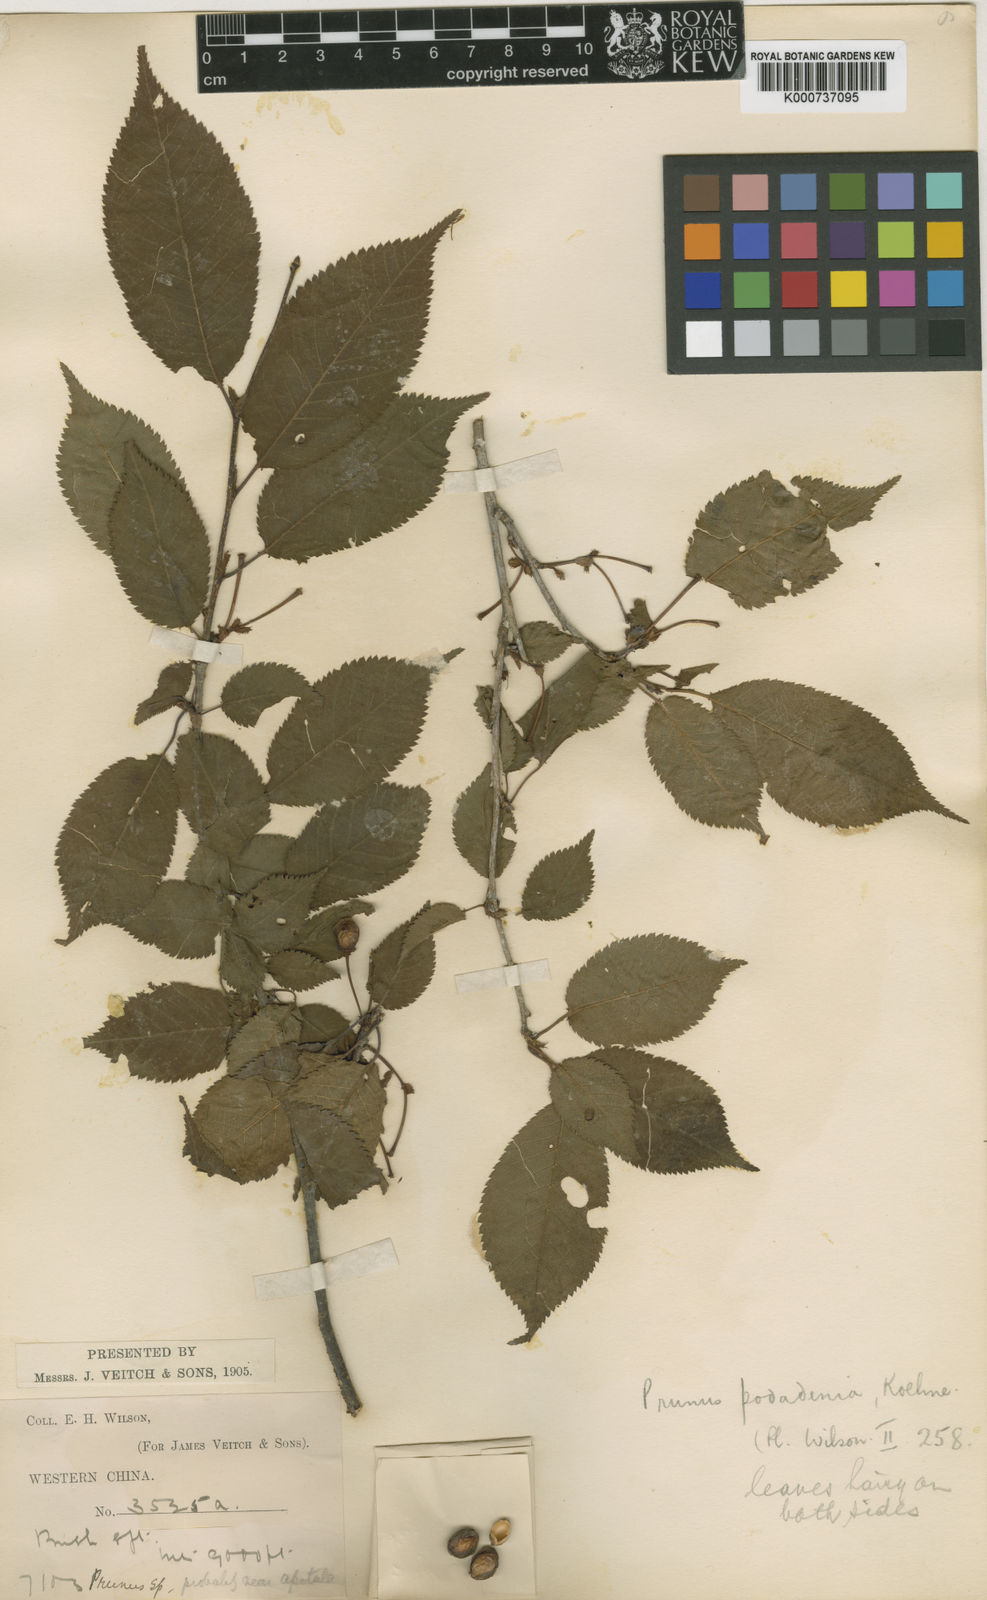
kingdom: Plantae
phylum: Tracheophyta
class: Magnoliopsida
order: Rosales
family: Rosaceae
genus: Prunus
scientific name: Prunus trichostoma
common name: Ribbed cherry
